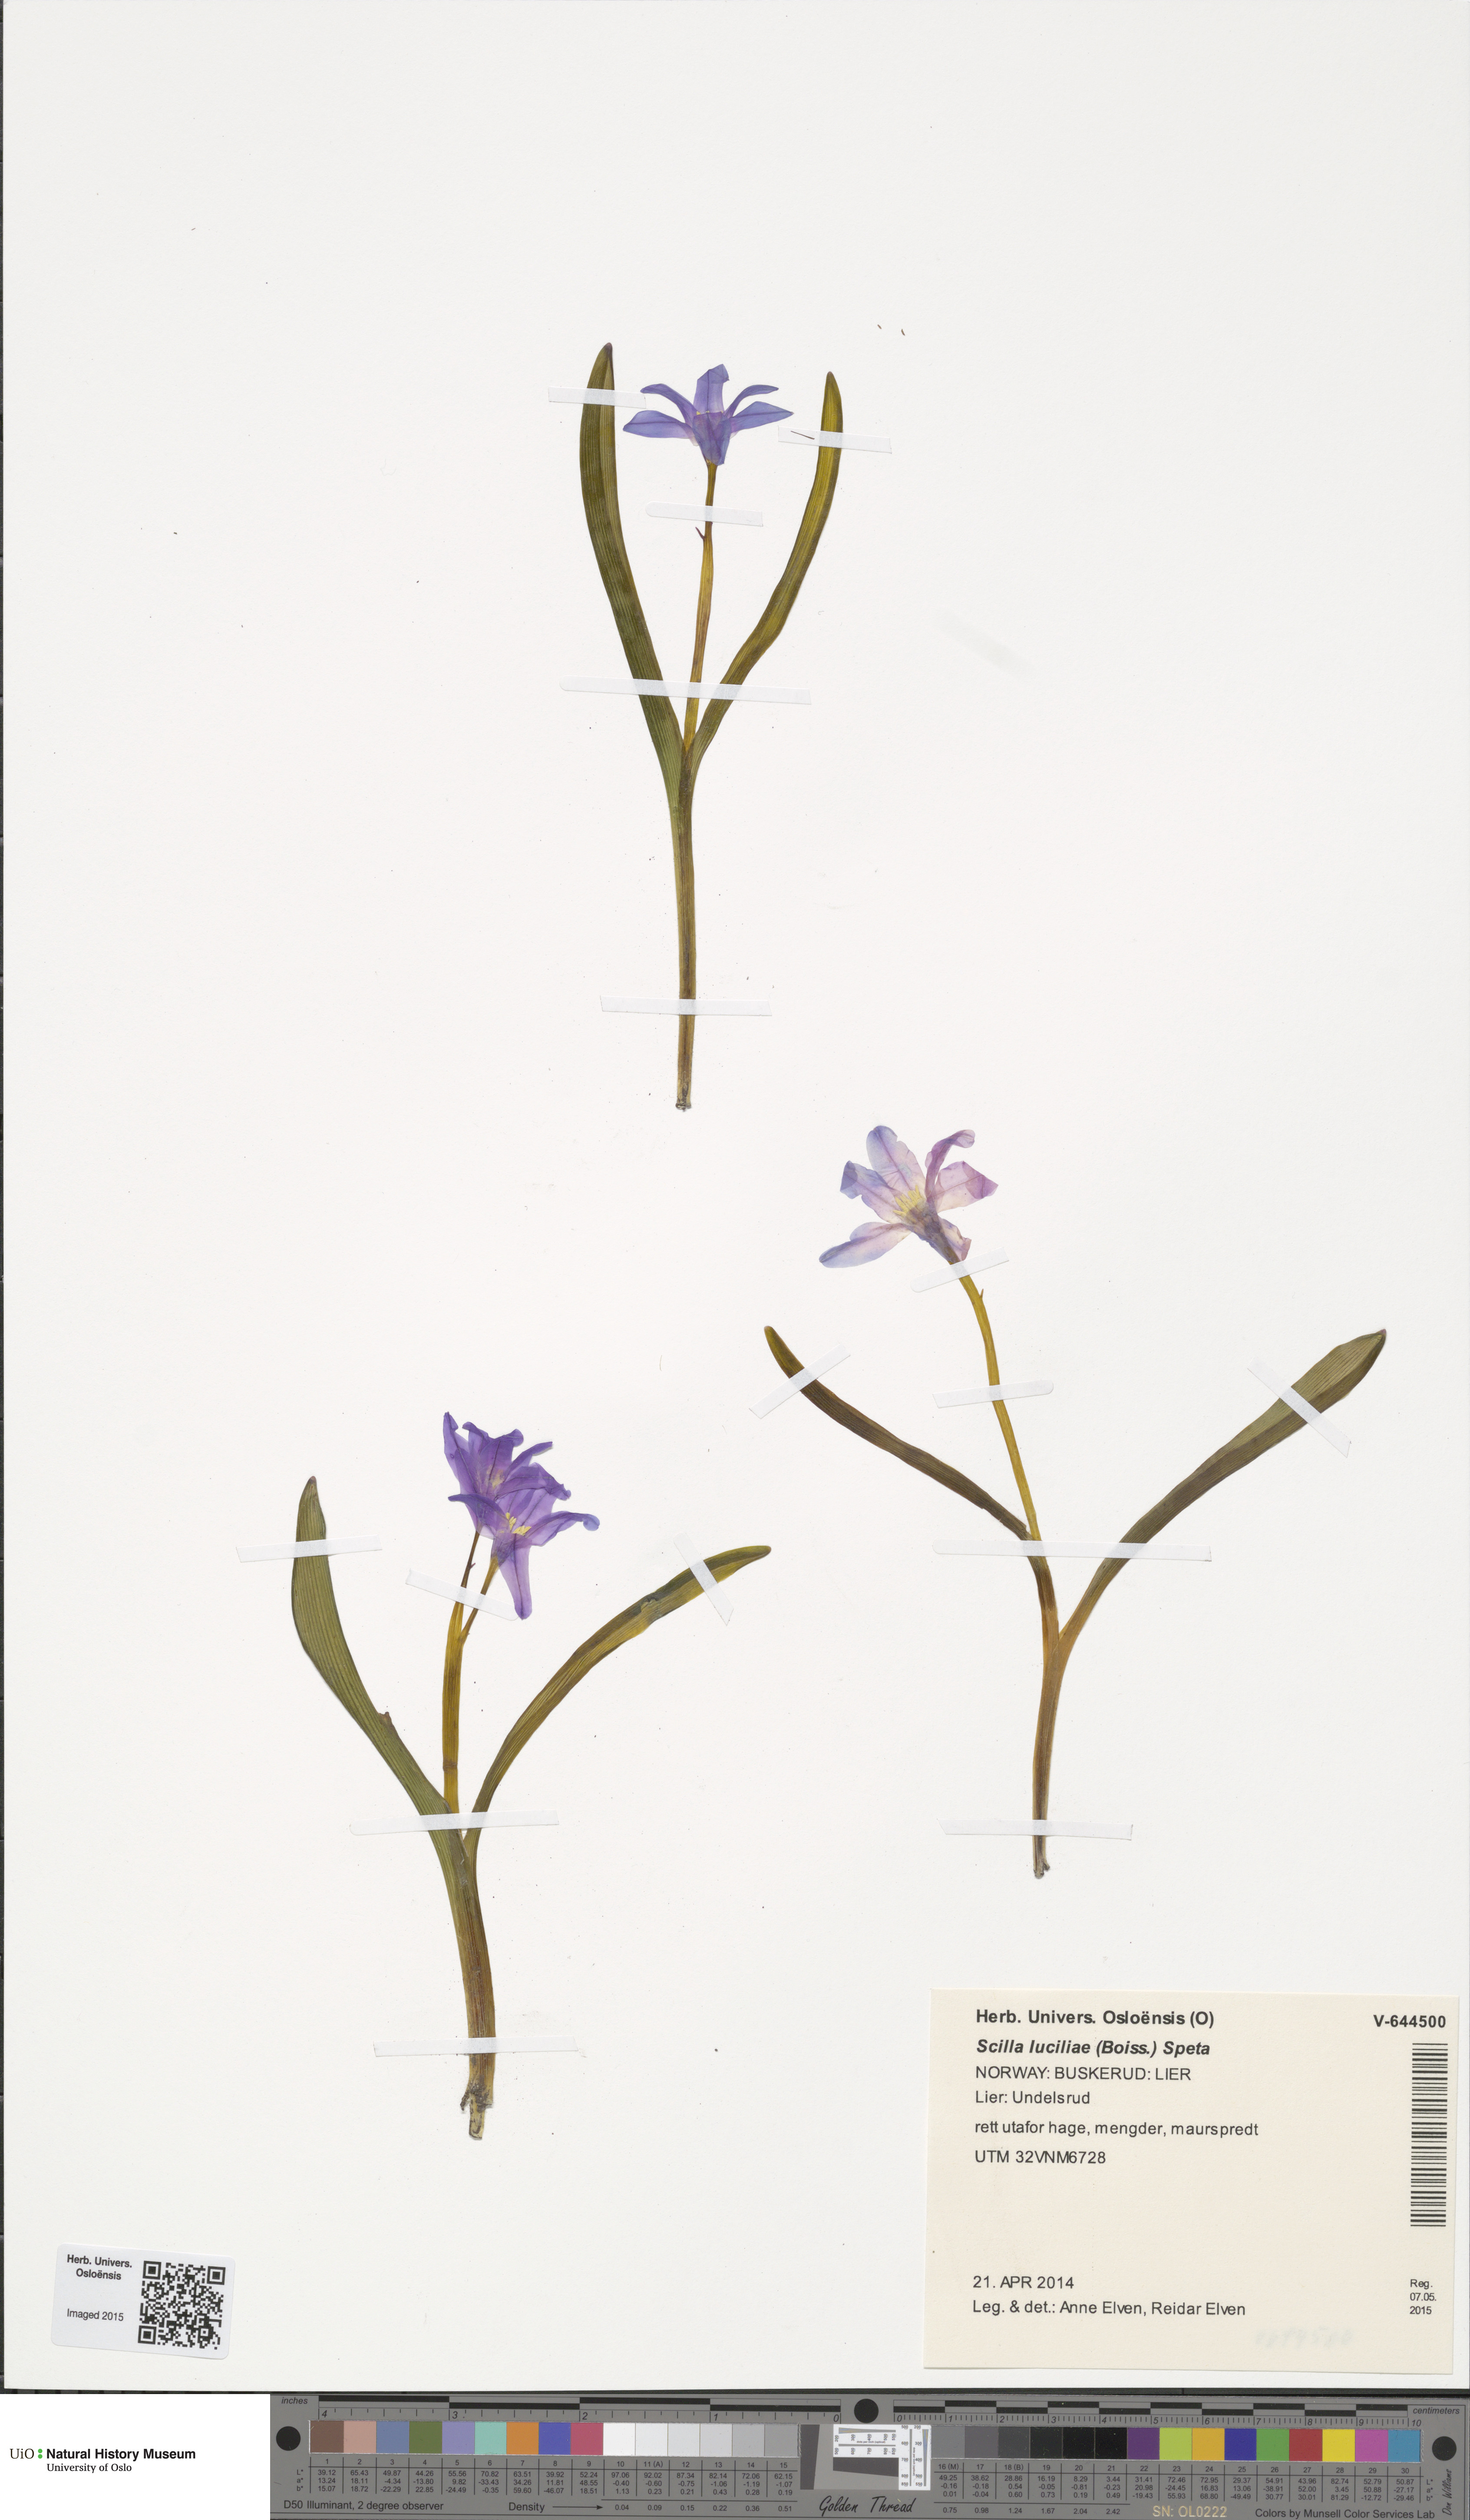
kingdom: Plantae
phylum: Tracheophyta
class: Liliopsida
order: Asparagales
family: Asparagaceae
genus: Scilla
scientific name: Scilla luciliae
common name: Boissier's glory-of-the-snow
